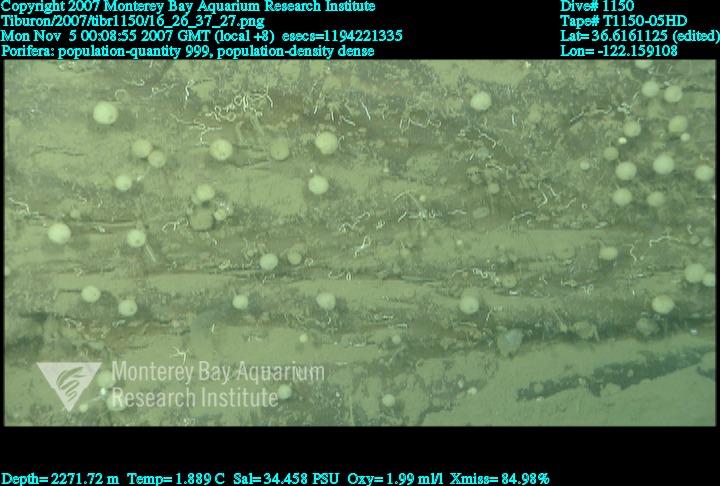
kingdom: Animalia
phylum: Porifera
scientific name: Porifera
